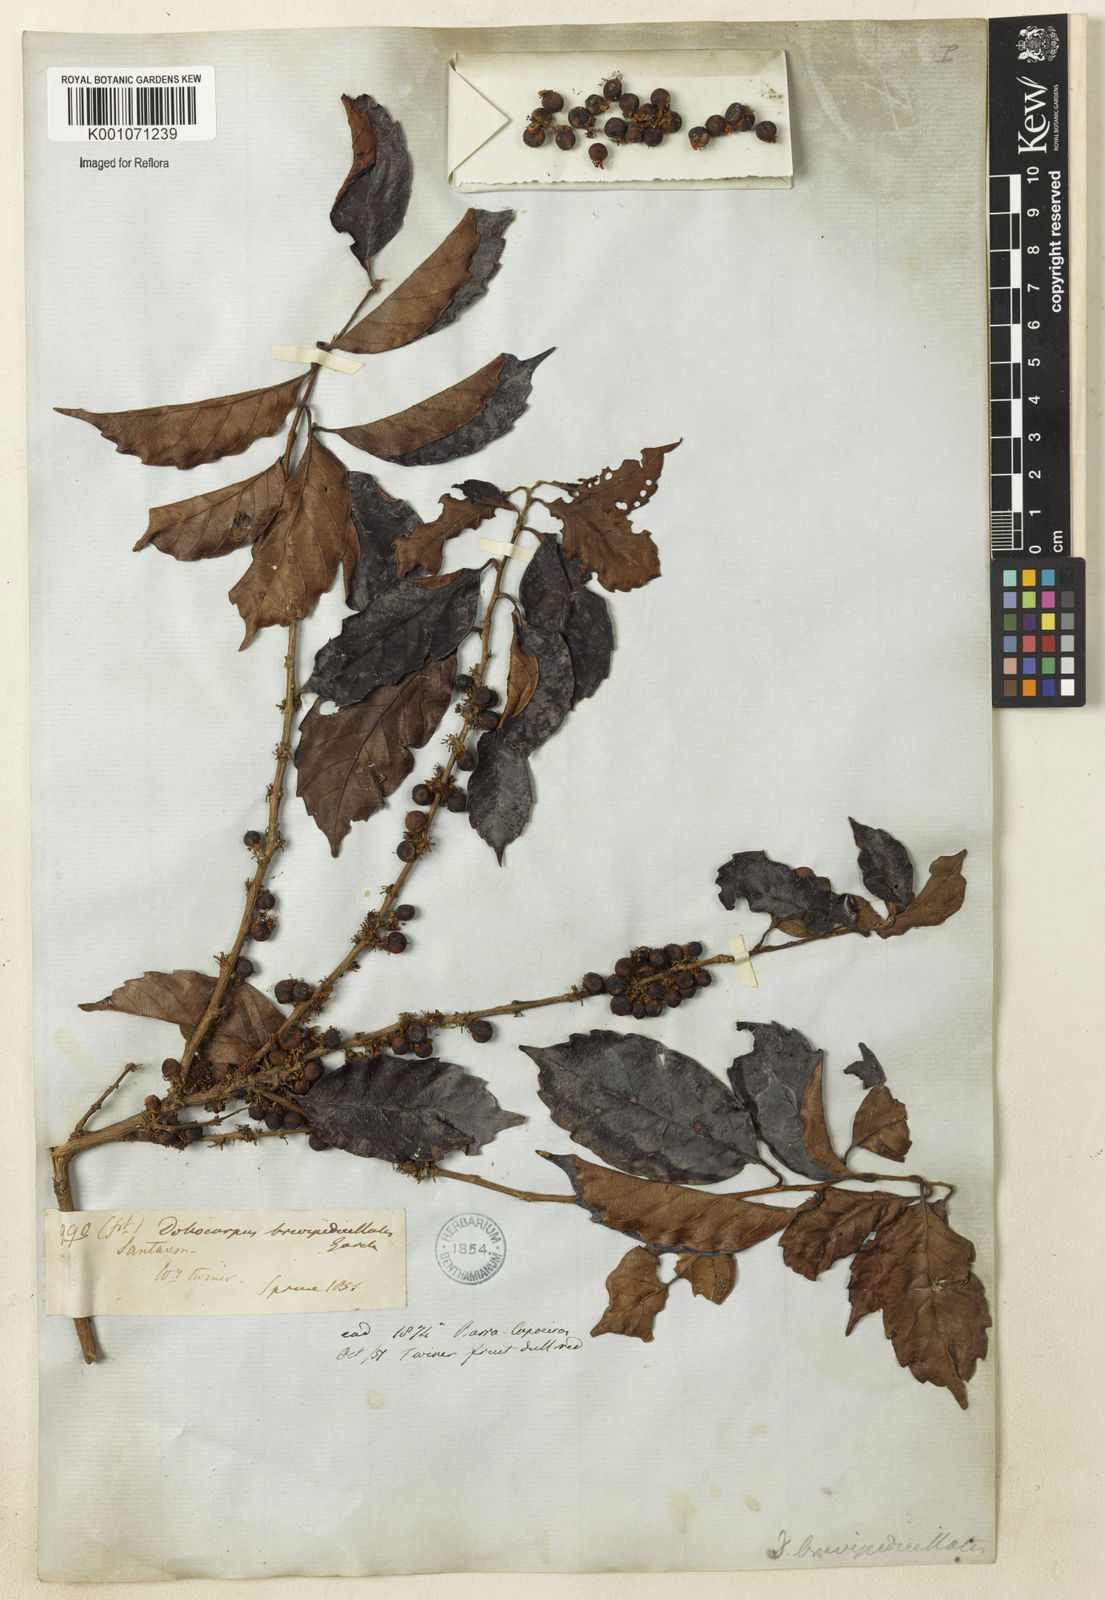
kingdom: Plantae
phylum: Tracheophyta
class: Magnoliopsida
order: Dilleniales
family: Dilleniaceae
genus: Doliocarpus
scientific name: Doliocarpus brevipedicellatus
